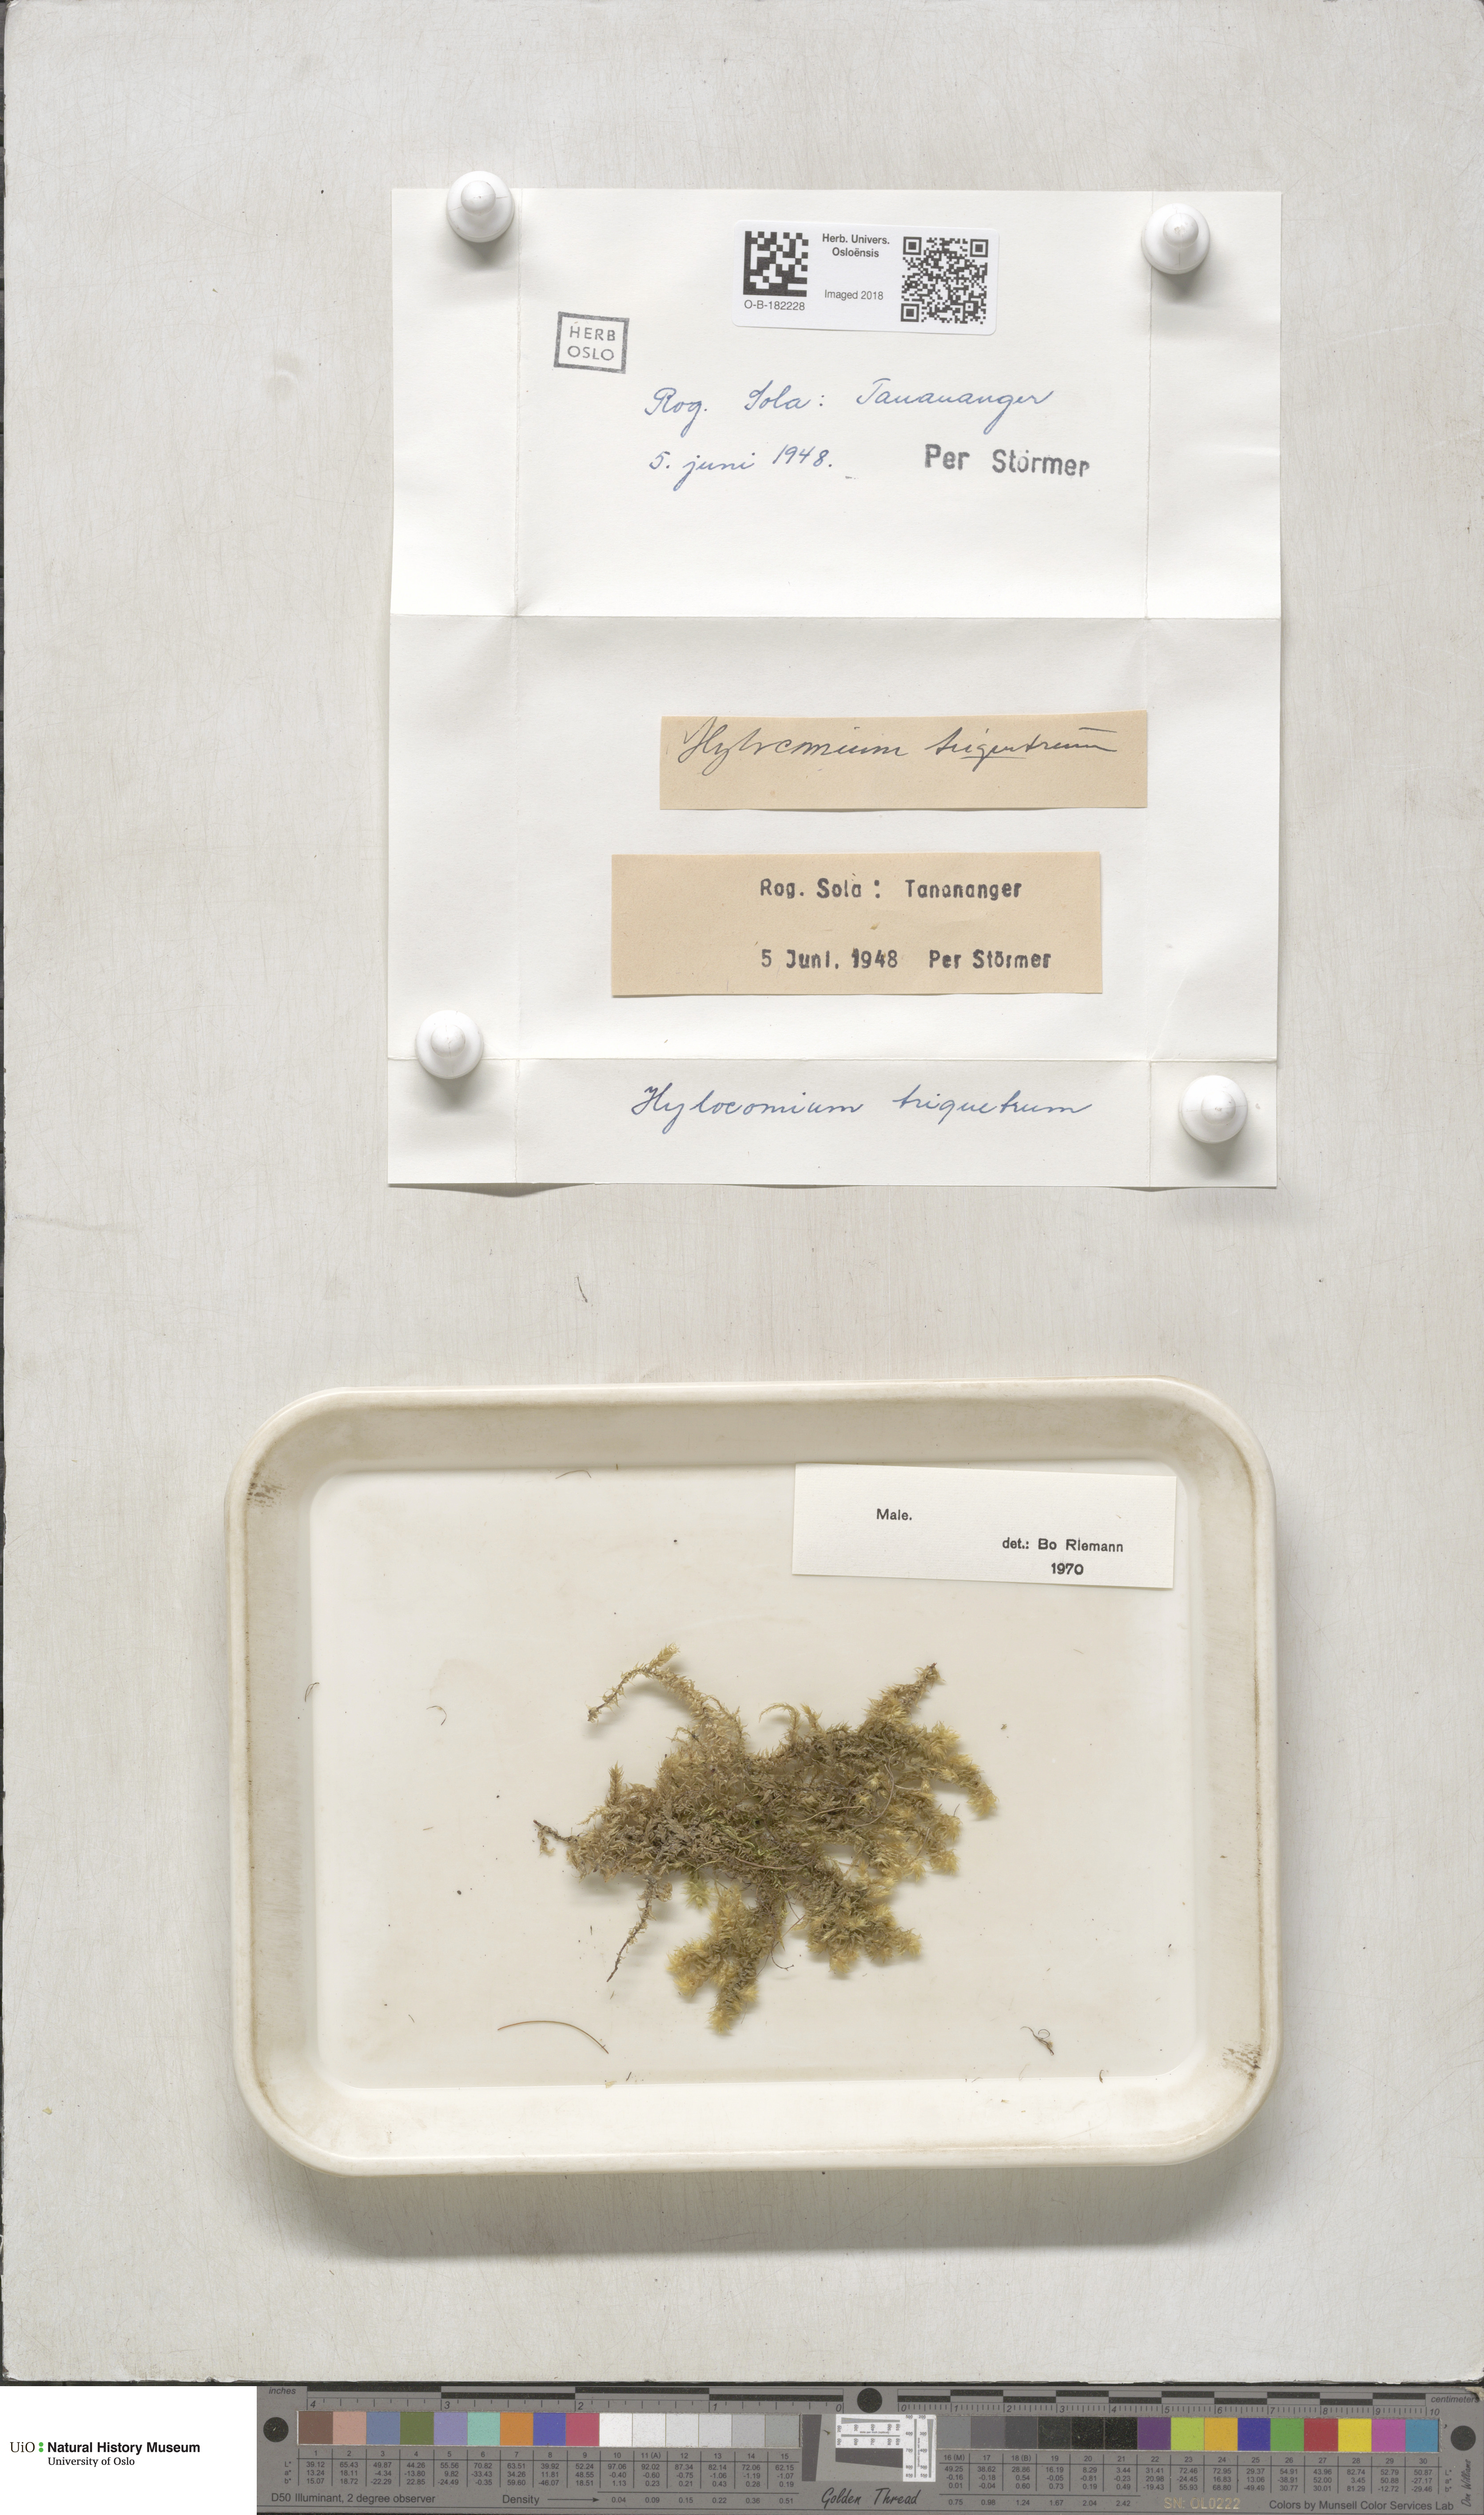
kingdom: Plantae
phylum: Bryophyta
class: Bryopsida
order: Hypnales
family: Hylocomiaceae
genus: Hylocomiadelphus
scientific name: Hylocomiadelphus triquetrus
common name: Rough goose neck moss
